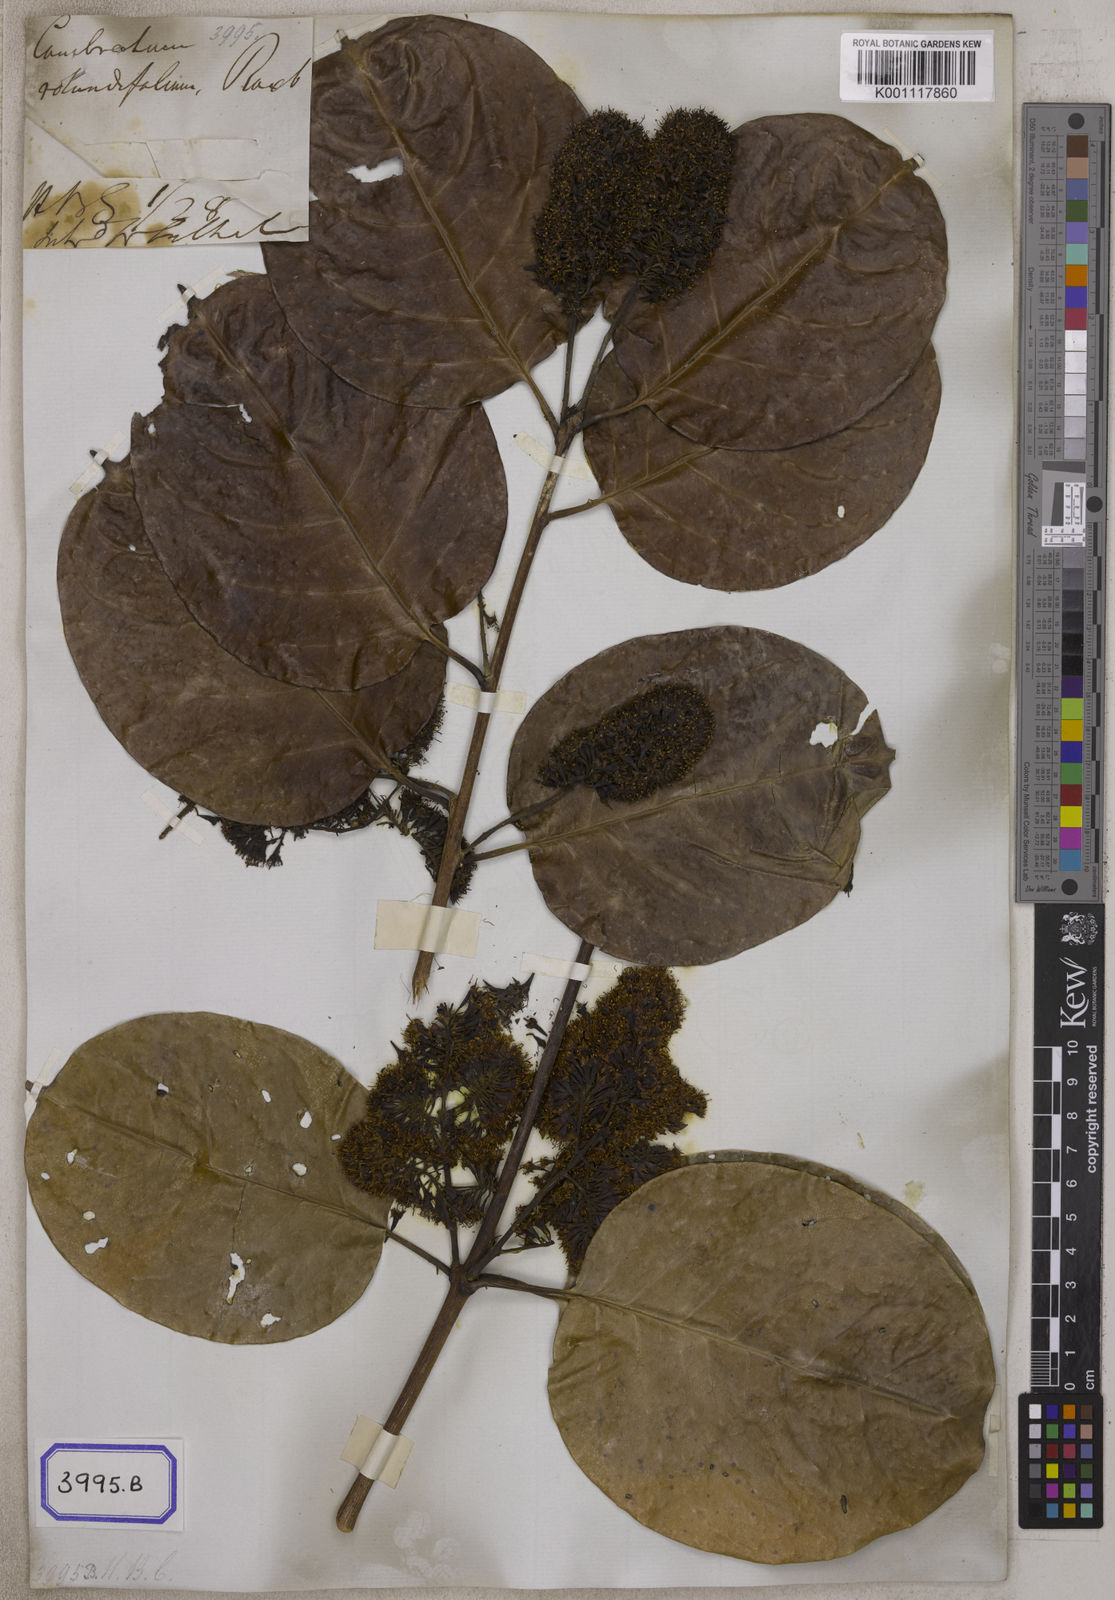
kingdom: Plantae
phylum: Tracheophyta
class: Magnoliopsida
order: Myrtales
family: Combretaceae
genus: Combretum
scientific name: Combretum latifolium
